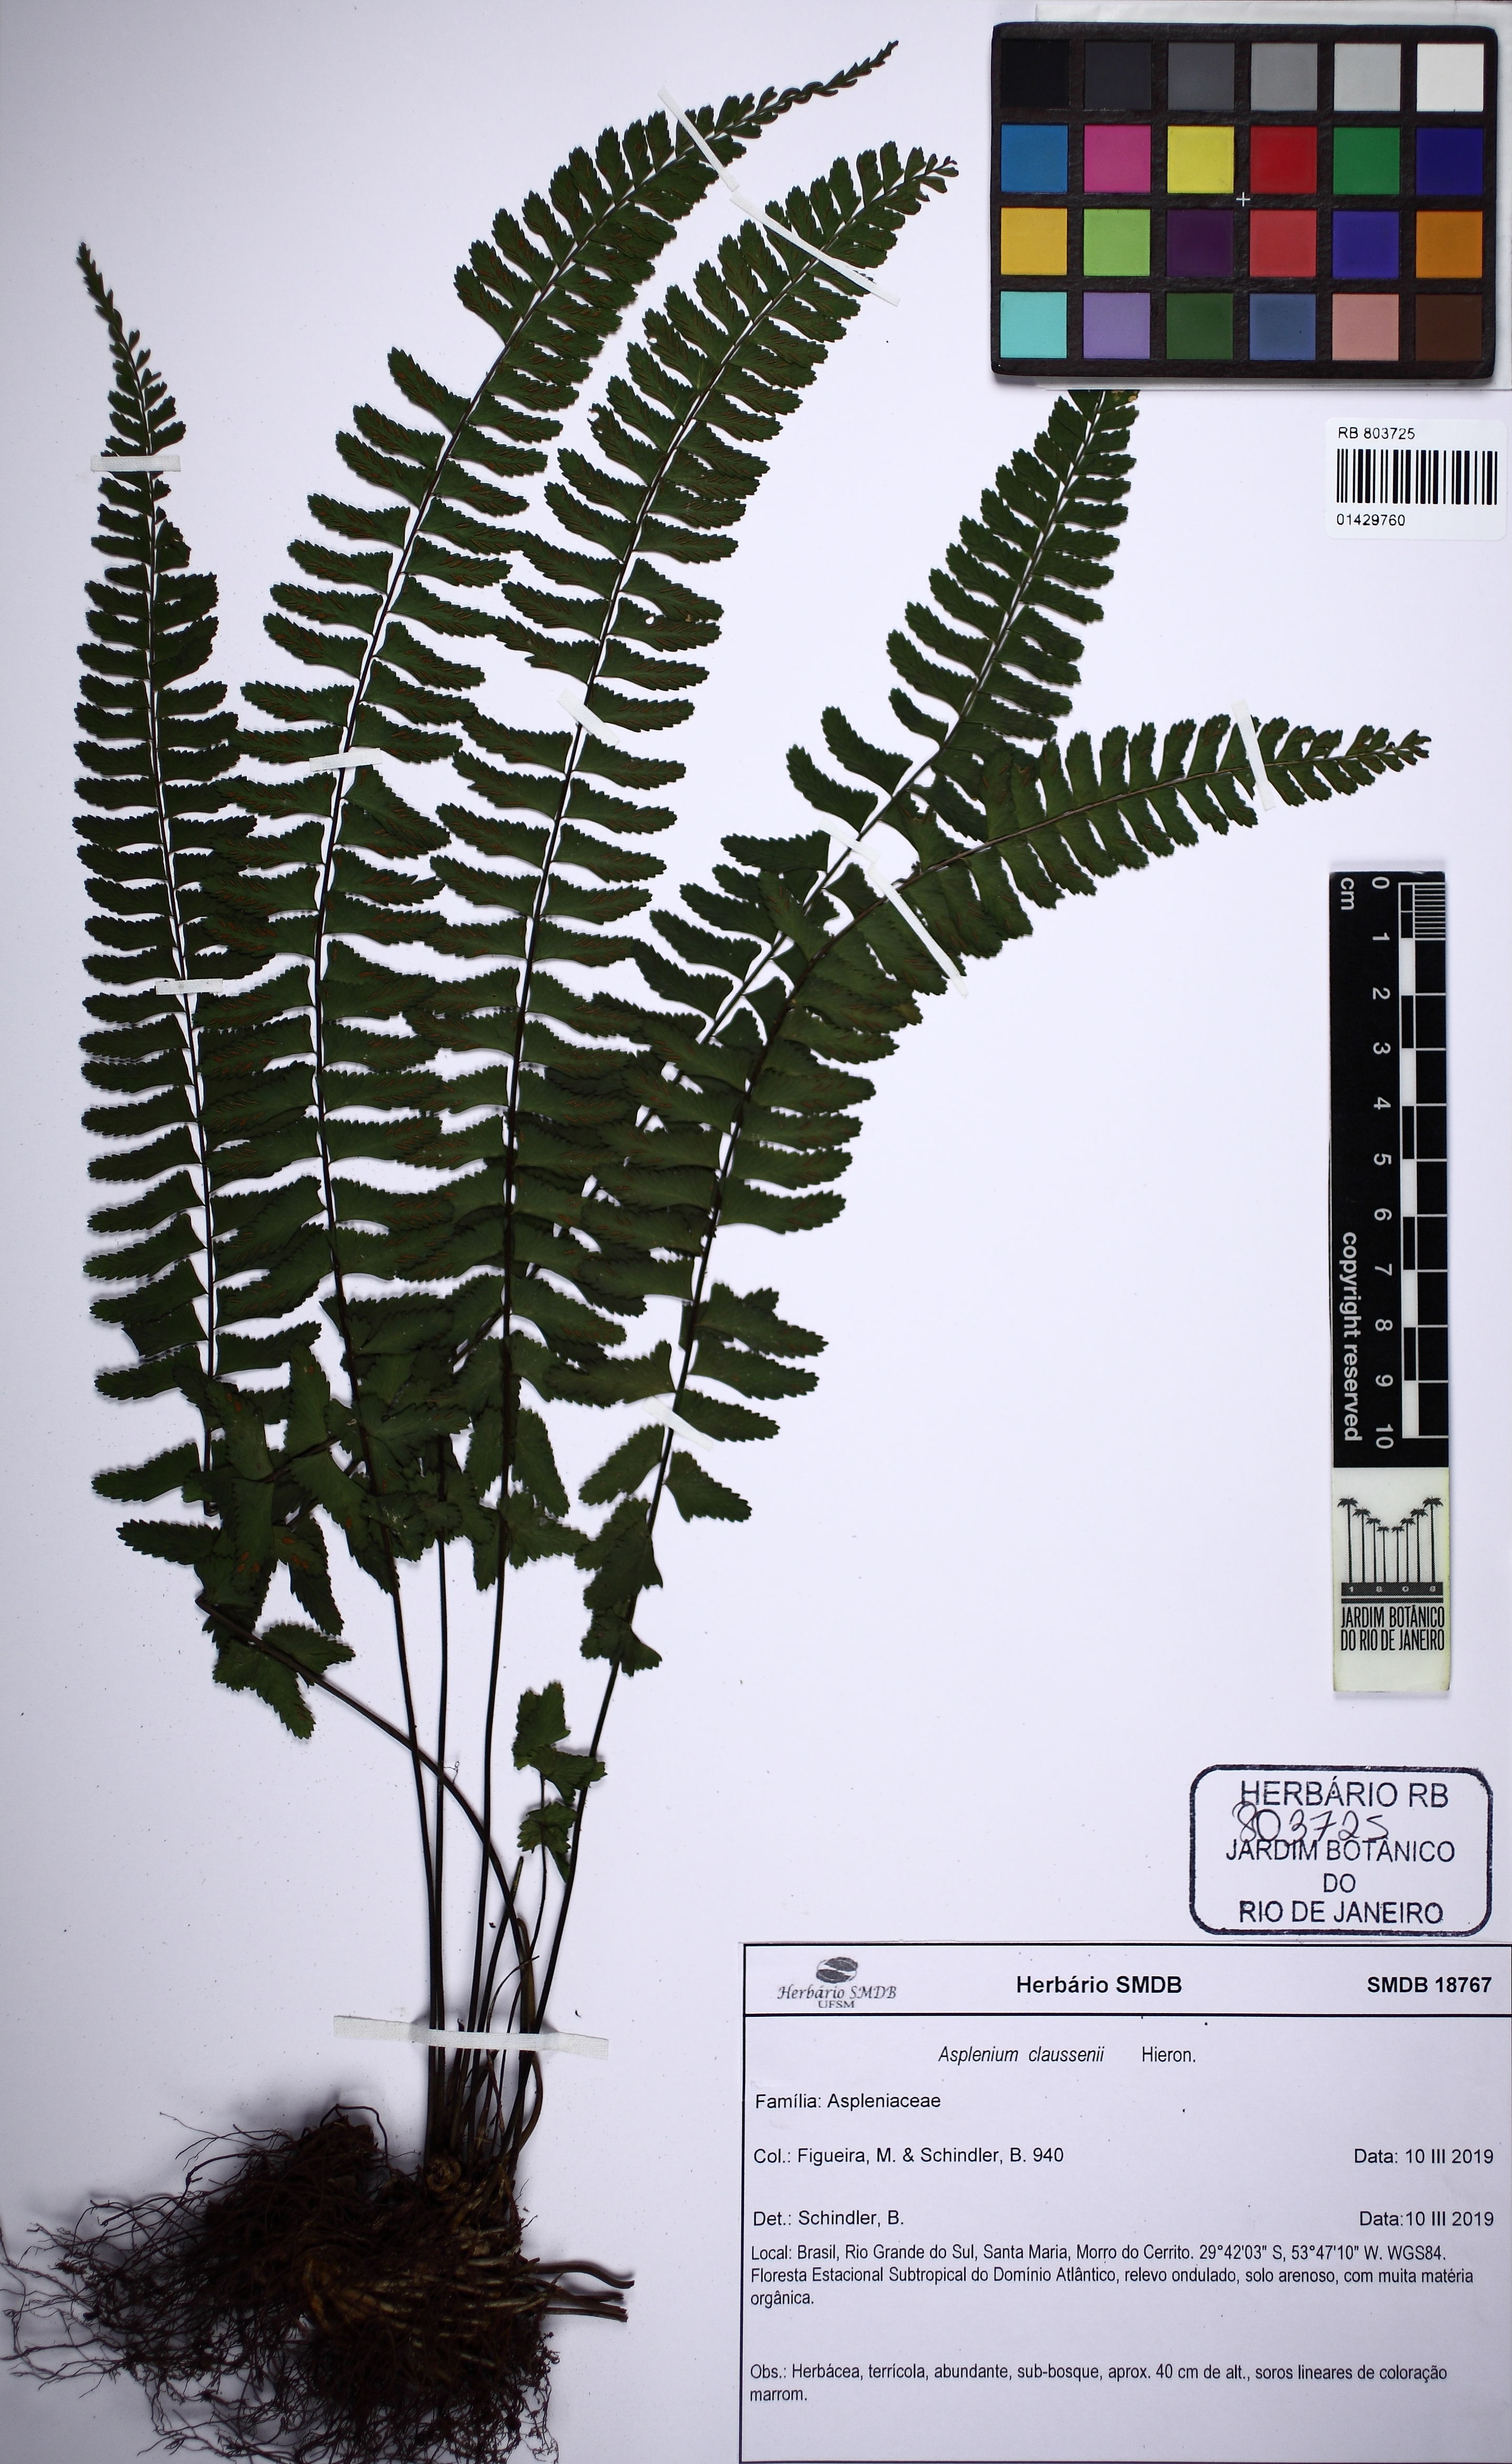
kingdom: Plantae
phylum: Tracheophyta
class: Polypodiopsida
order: Polypodiales
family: Aspleniaceae
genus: Asplenium
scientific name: Asplenium claussenii
